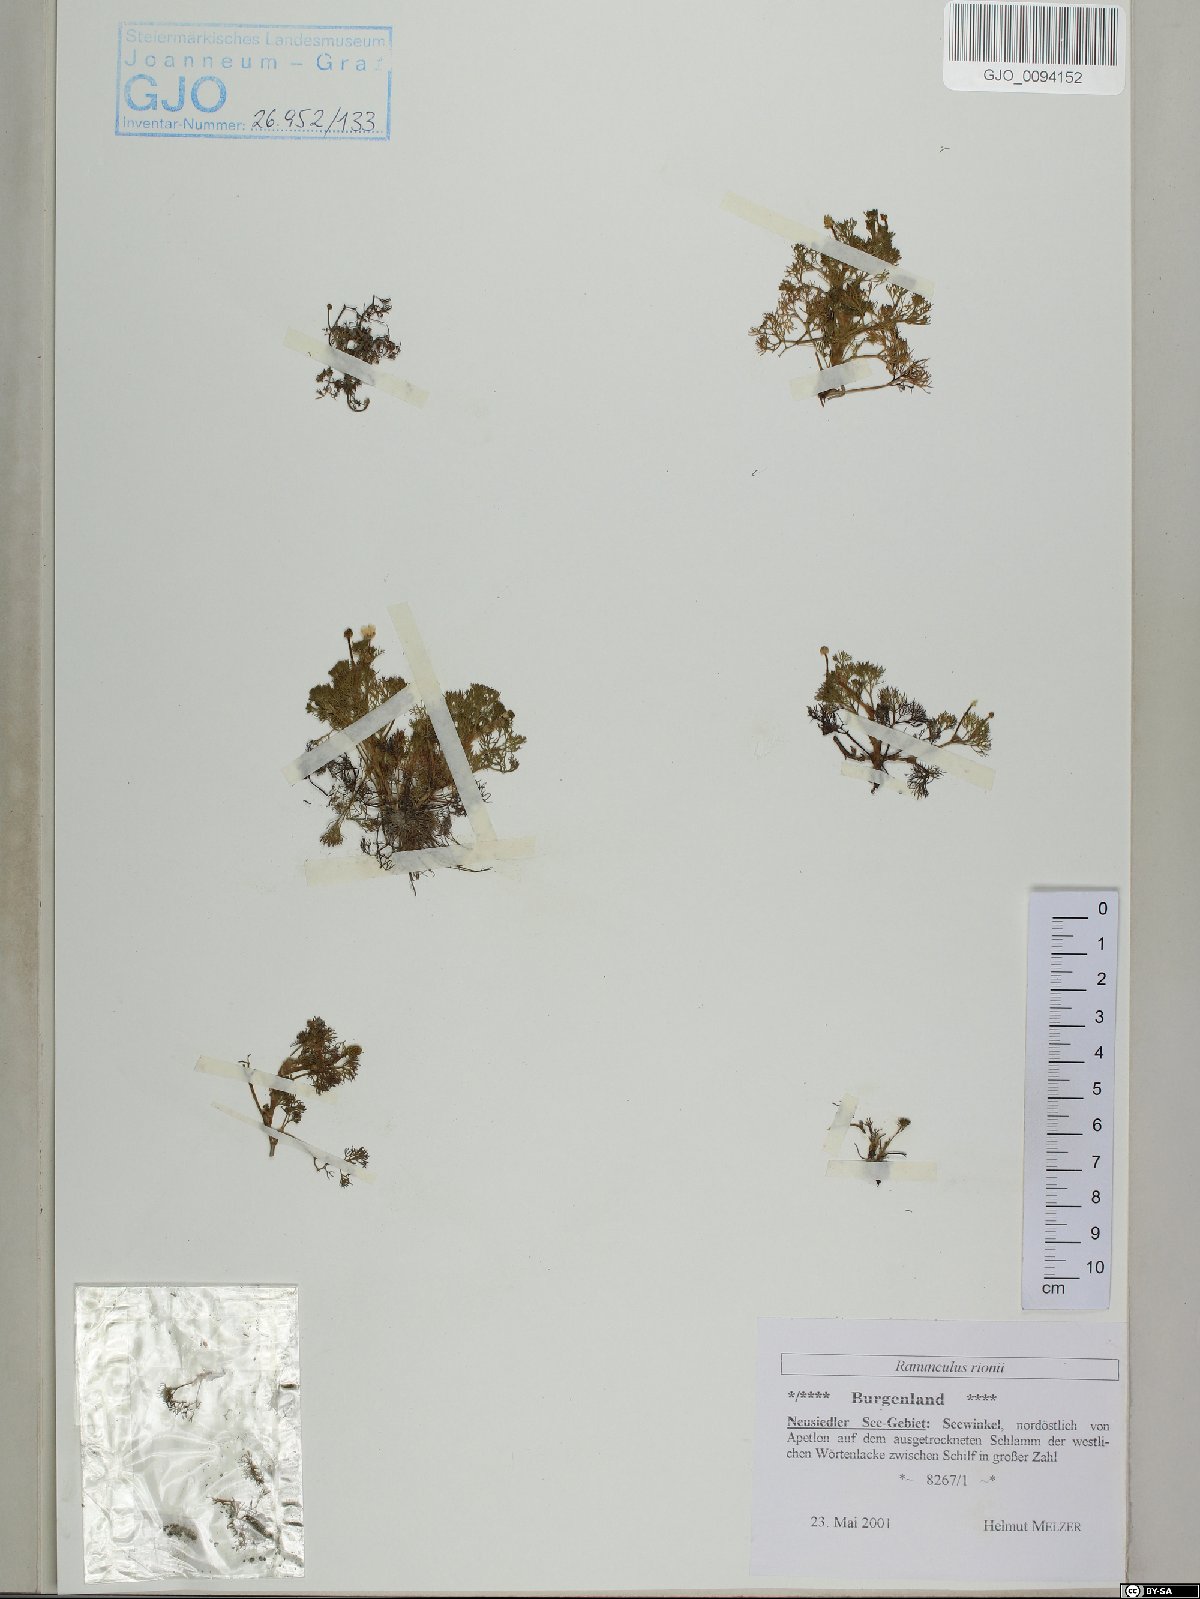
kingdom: Plantae
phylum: Tracheophyta
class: Magnoliopsida
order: Ranunculales
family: Ranunculaceae
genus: Ranunculus
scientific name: Ranunculus rionii
